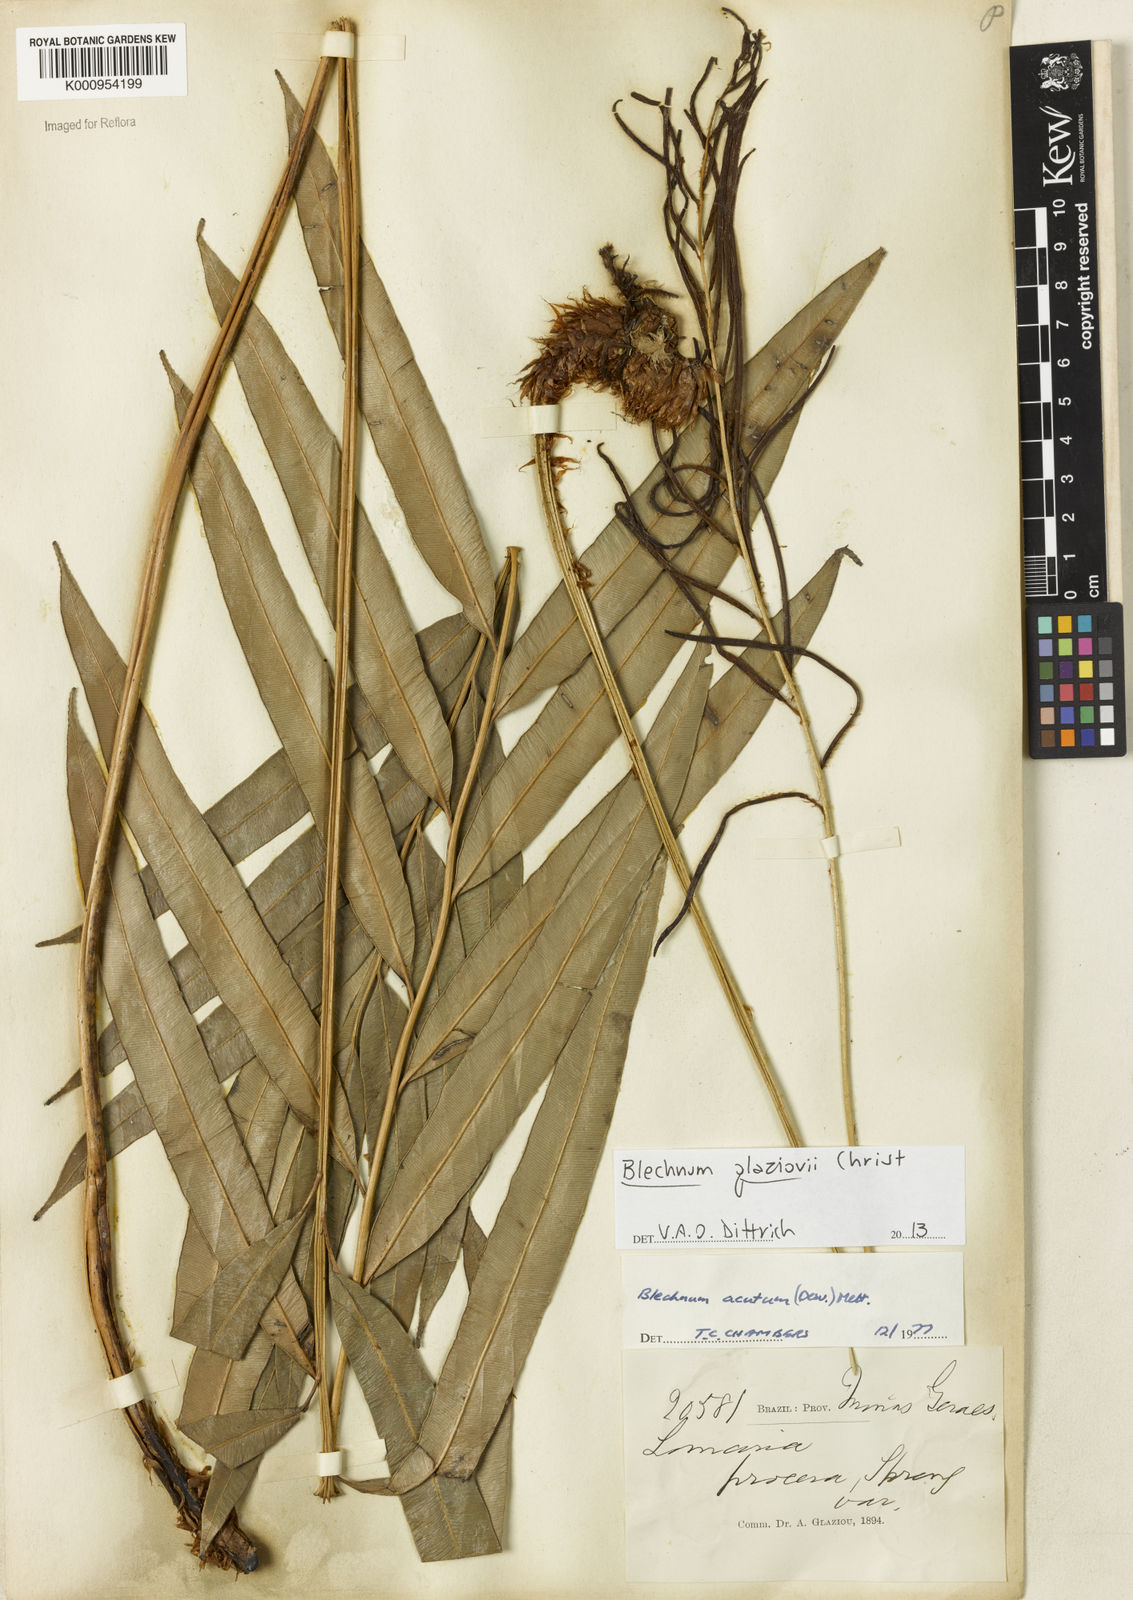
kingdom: Plantae
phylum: Tracheophyta
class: Polypodiopsida
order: Polypodiales
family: Blechnaceae
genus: Lomaridium
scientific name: Lomaridium acutum
